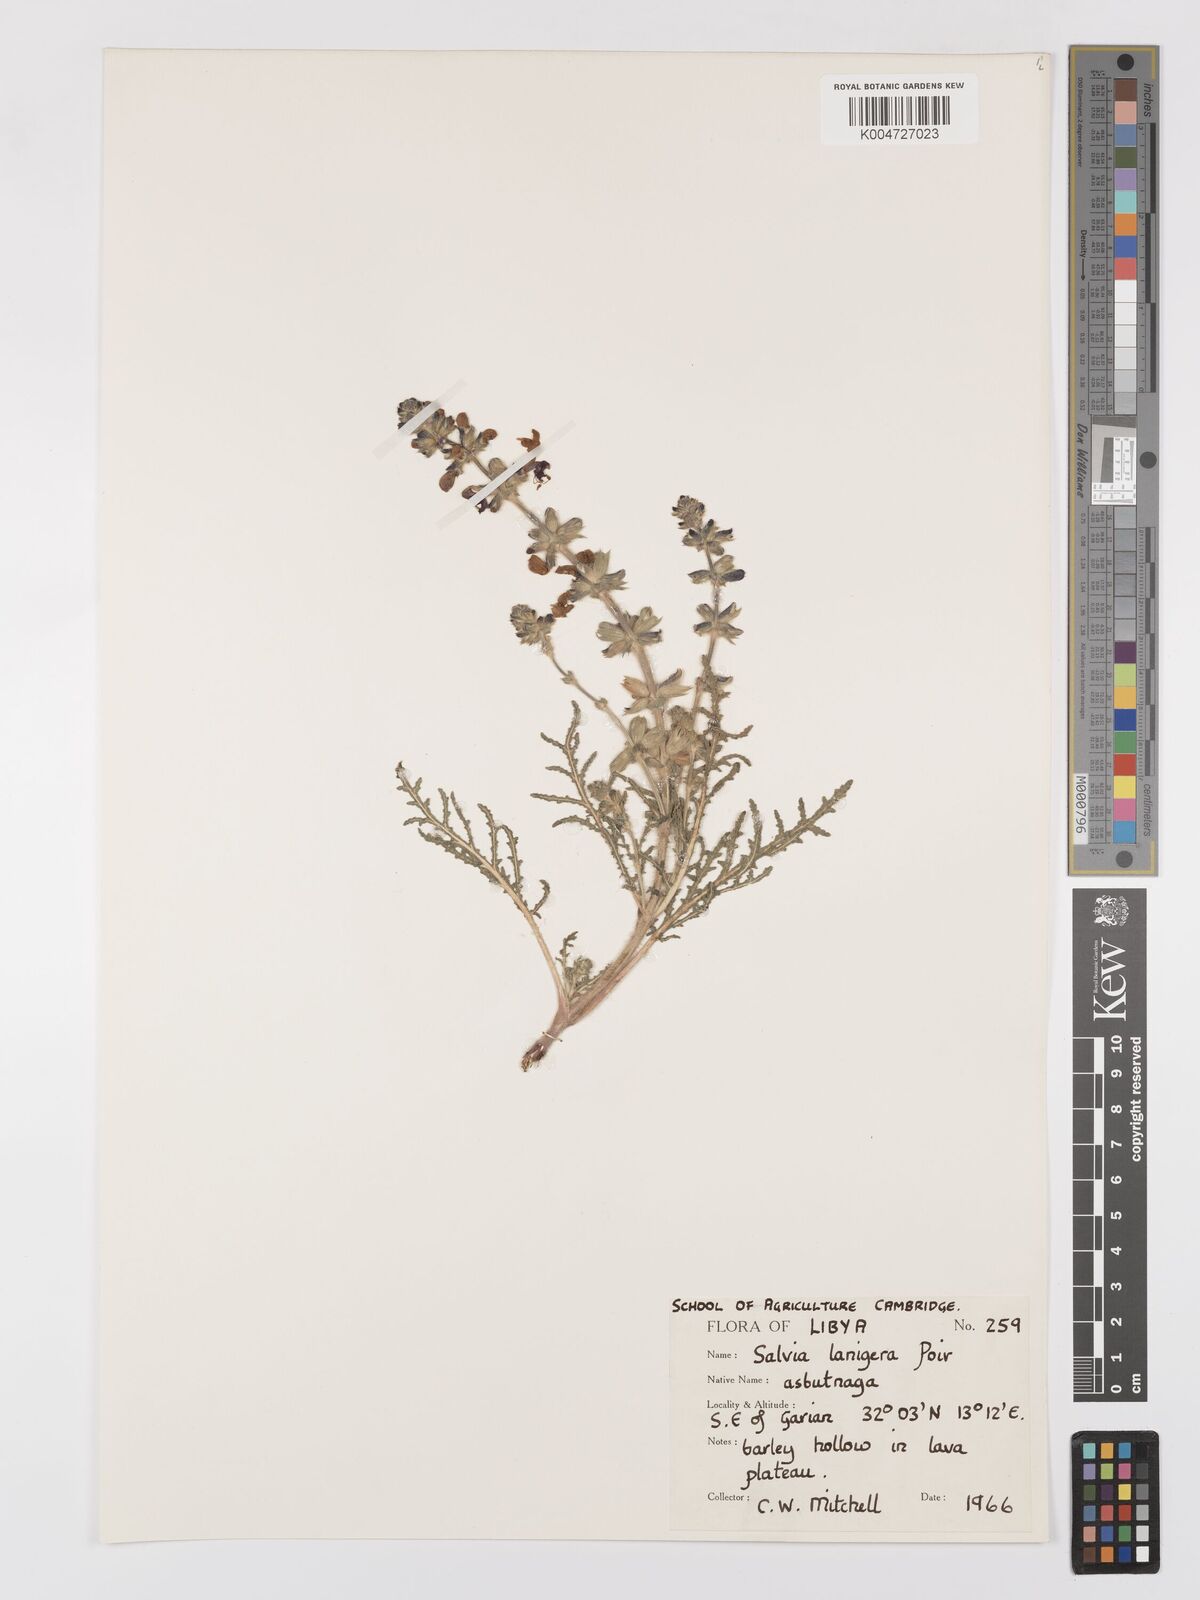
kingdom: Plantae
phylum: Tracheophyta
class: Magnoliopsida
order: Lamiales
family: Lamiaceae
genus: Salvia
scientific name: Salvia lanigera
